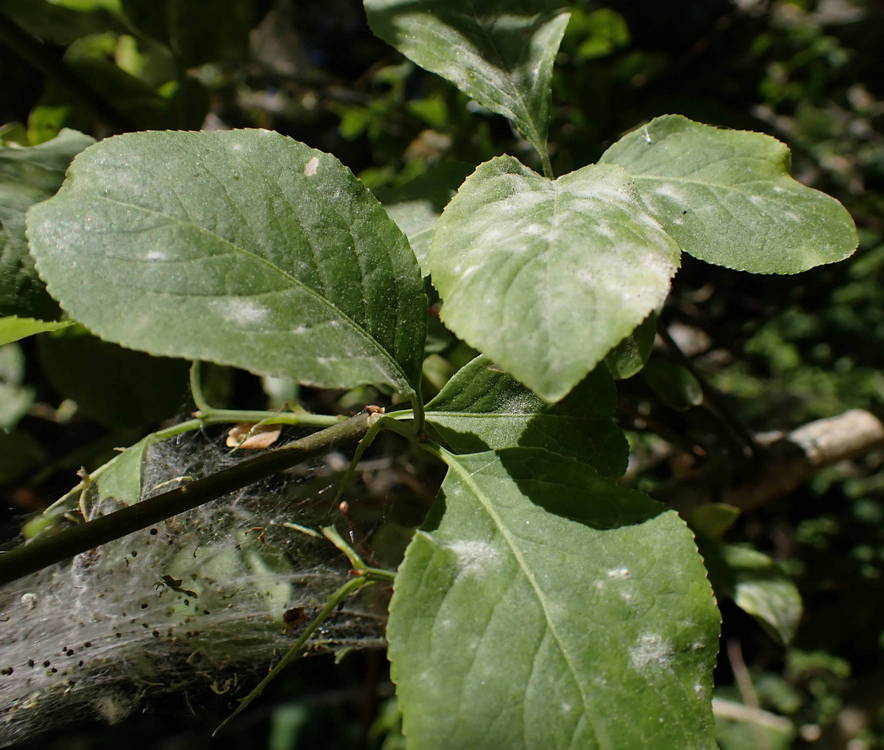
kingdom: Fungi
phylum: Ascomycota
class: Leotiomycetes
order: Helotiales
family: Erysiphaceae
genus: Erysiphe
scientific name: Erysiphe euonymi
